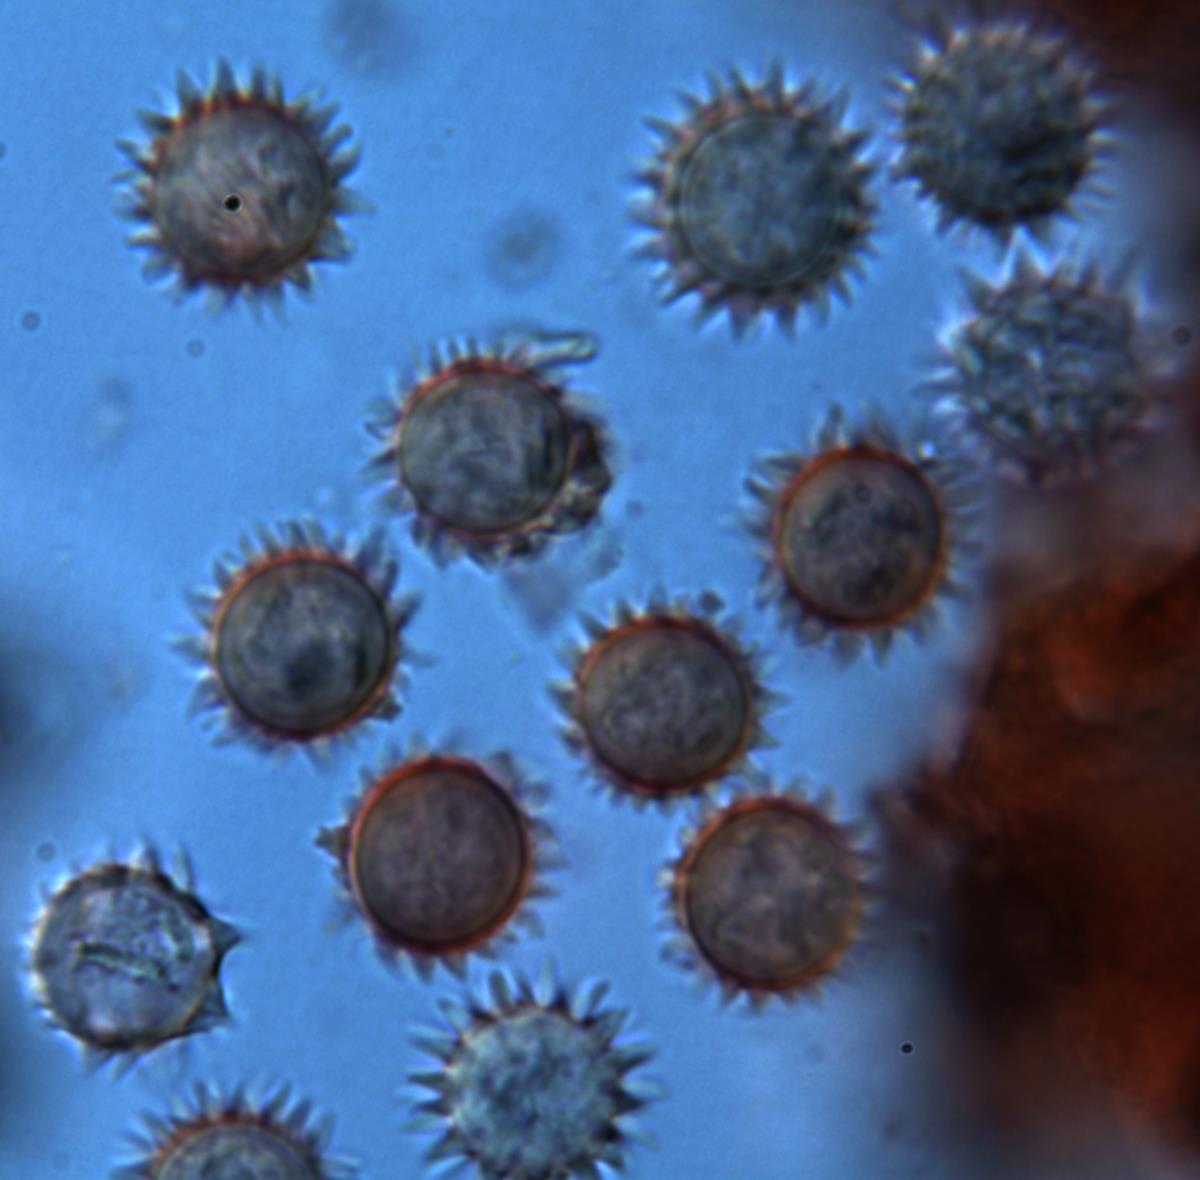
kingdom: Fungi
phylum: Basidiomycota
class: Agaricomycetes
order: Agaricales
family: Hydnangiaceae
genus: Hydnangium
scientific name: Hydnangium kanuka
